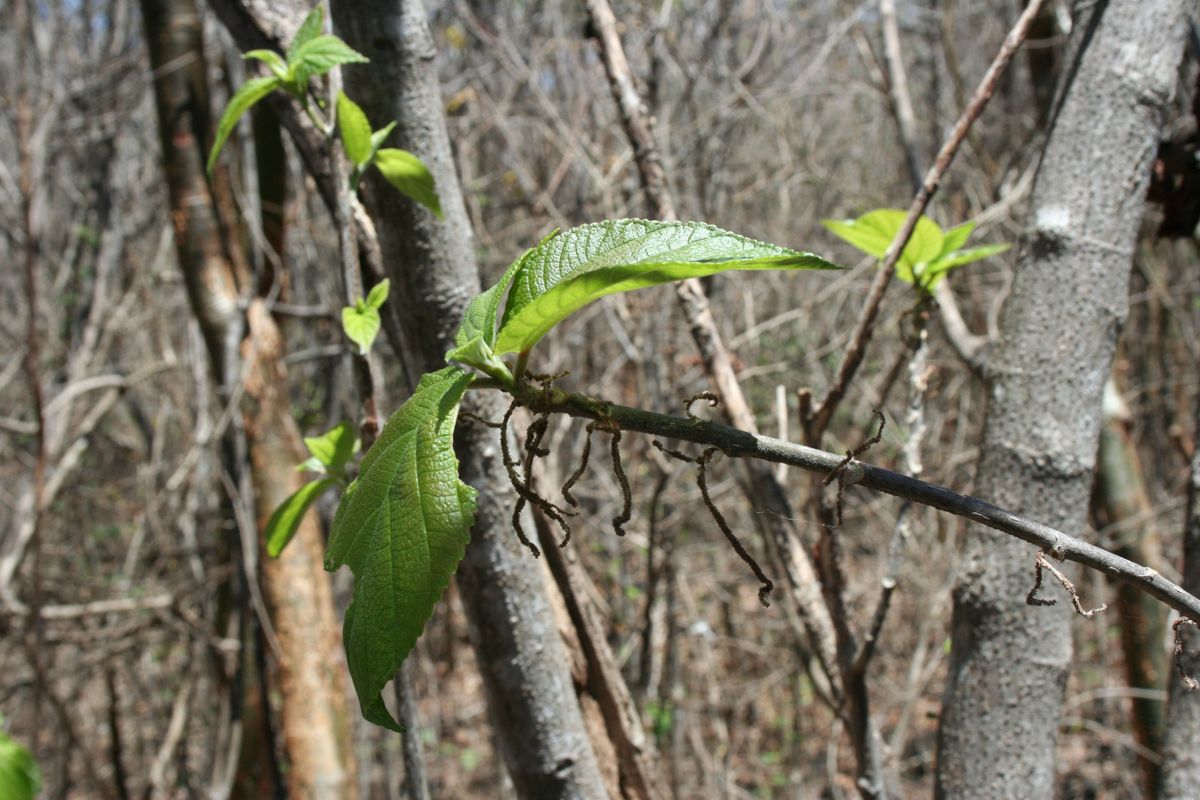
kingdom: Plantae
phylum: Tracheophyta
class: Magnoliopsida
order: Rosales
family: Urticaceae
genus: Myriocarpa
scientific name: Myriocarpa
